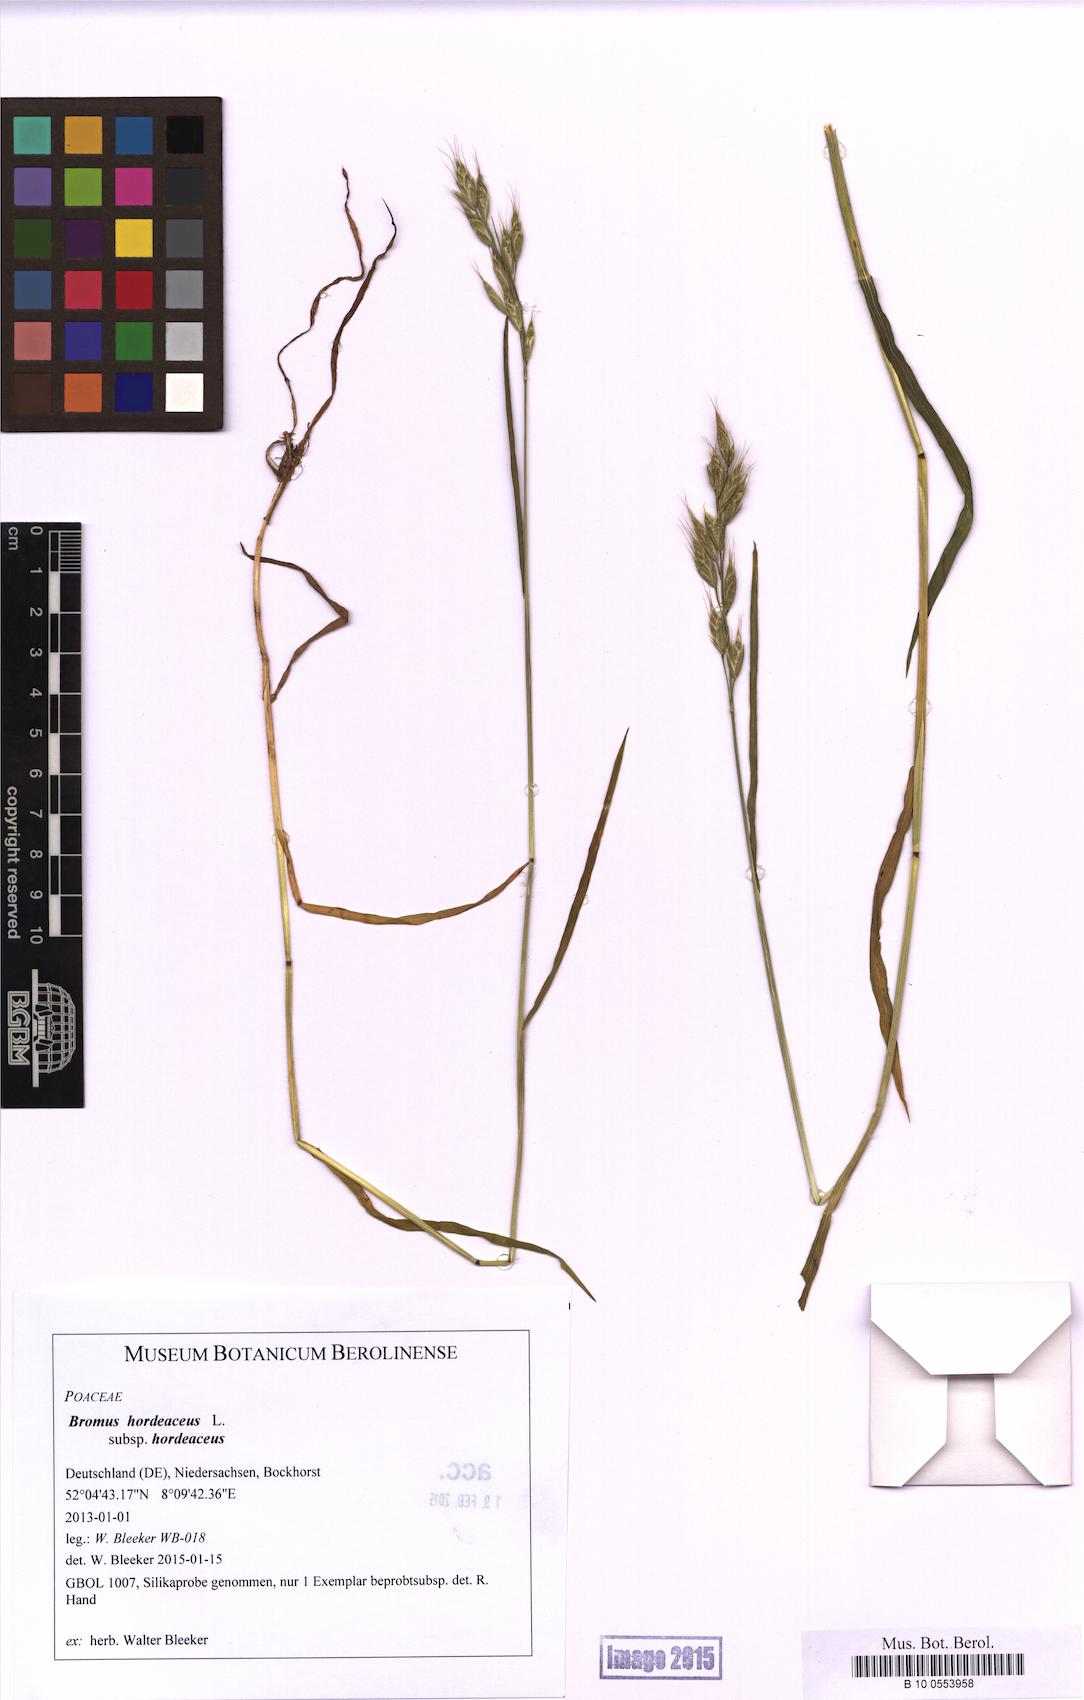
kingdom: Plantae
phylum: Tracheophyta
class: Liliopsida
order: Poales
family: Poaceae
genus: Bromus
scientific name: Bromus hordeaceus
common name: Soft brome
